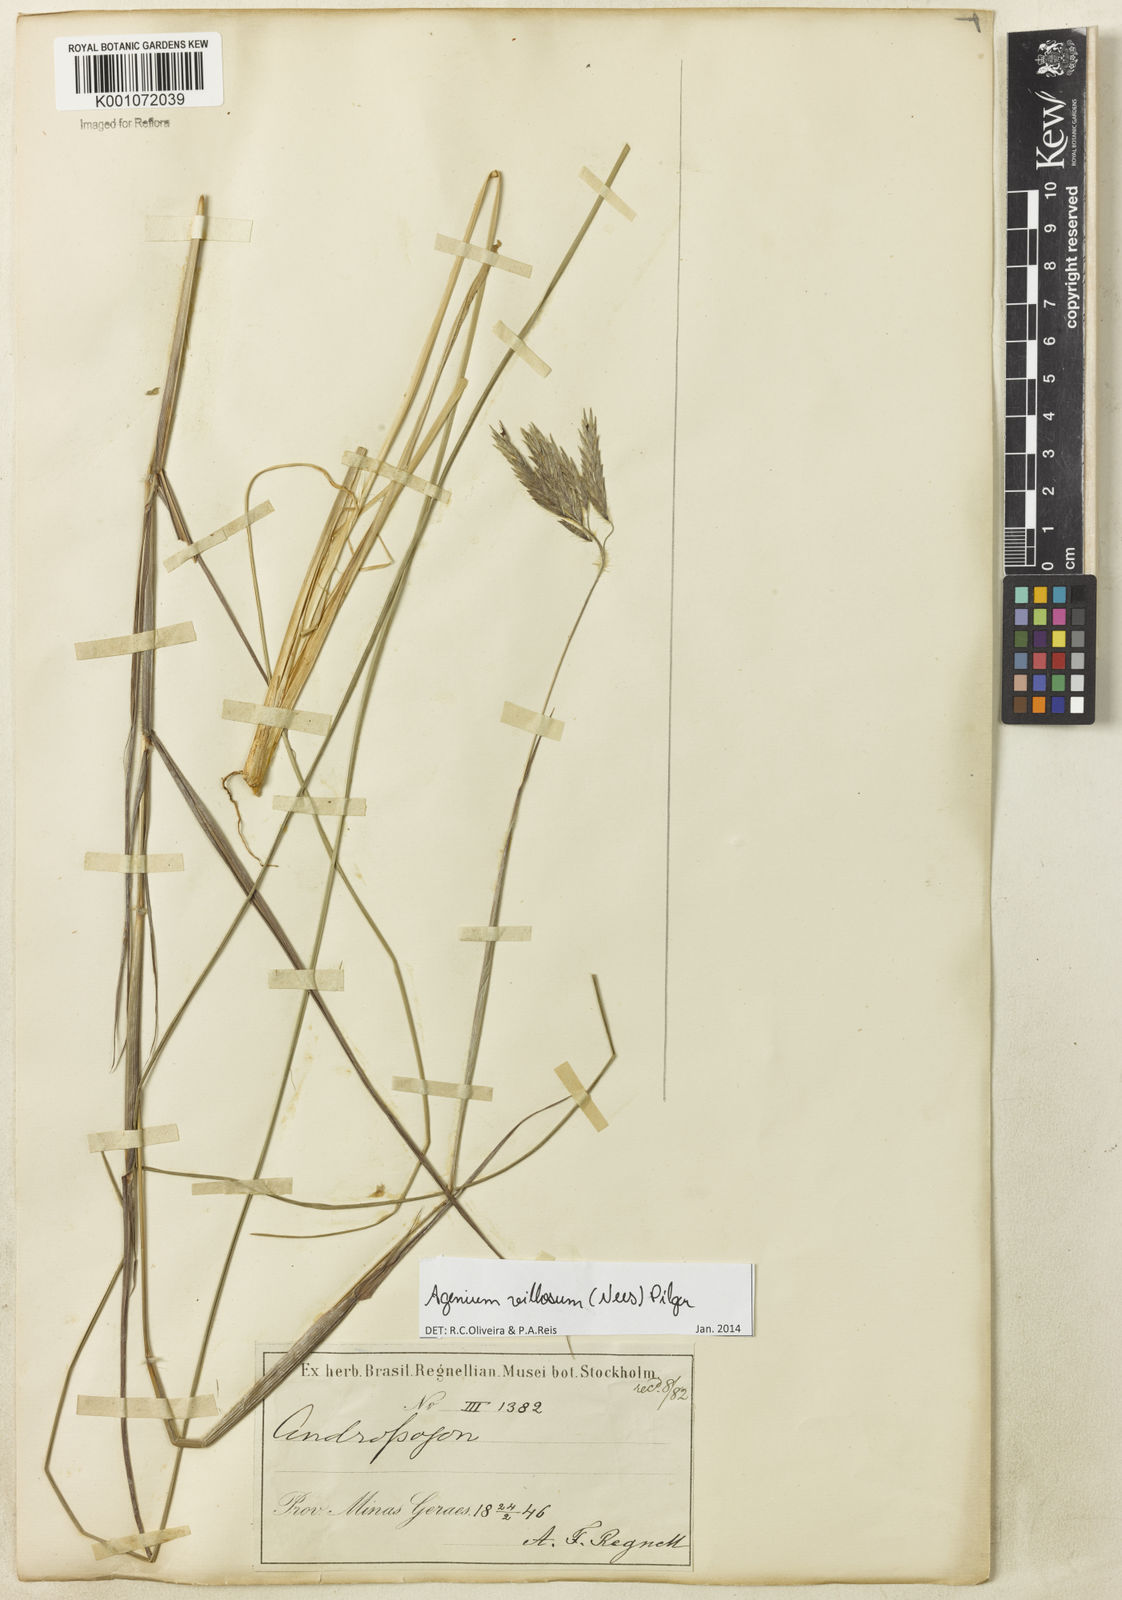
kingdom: Plantae
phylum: Tracheophyta
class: Liliopsida
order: Poales
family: Poaceae
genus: Agenium
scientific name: Agenium villosum
